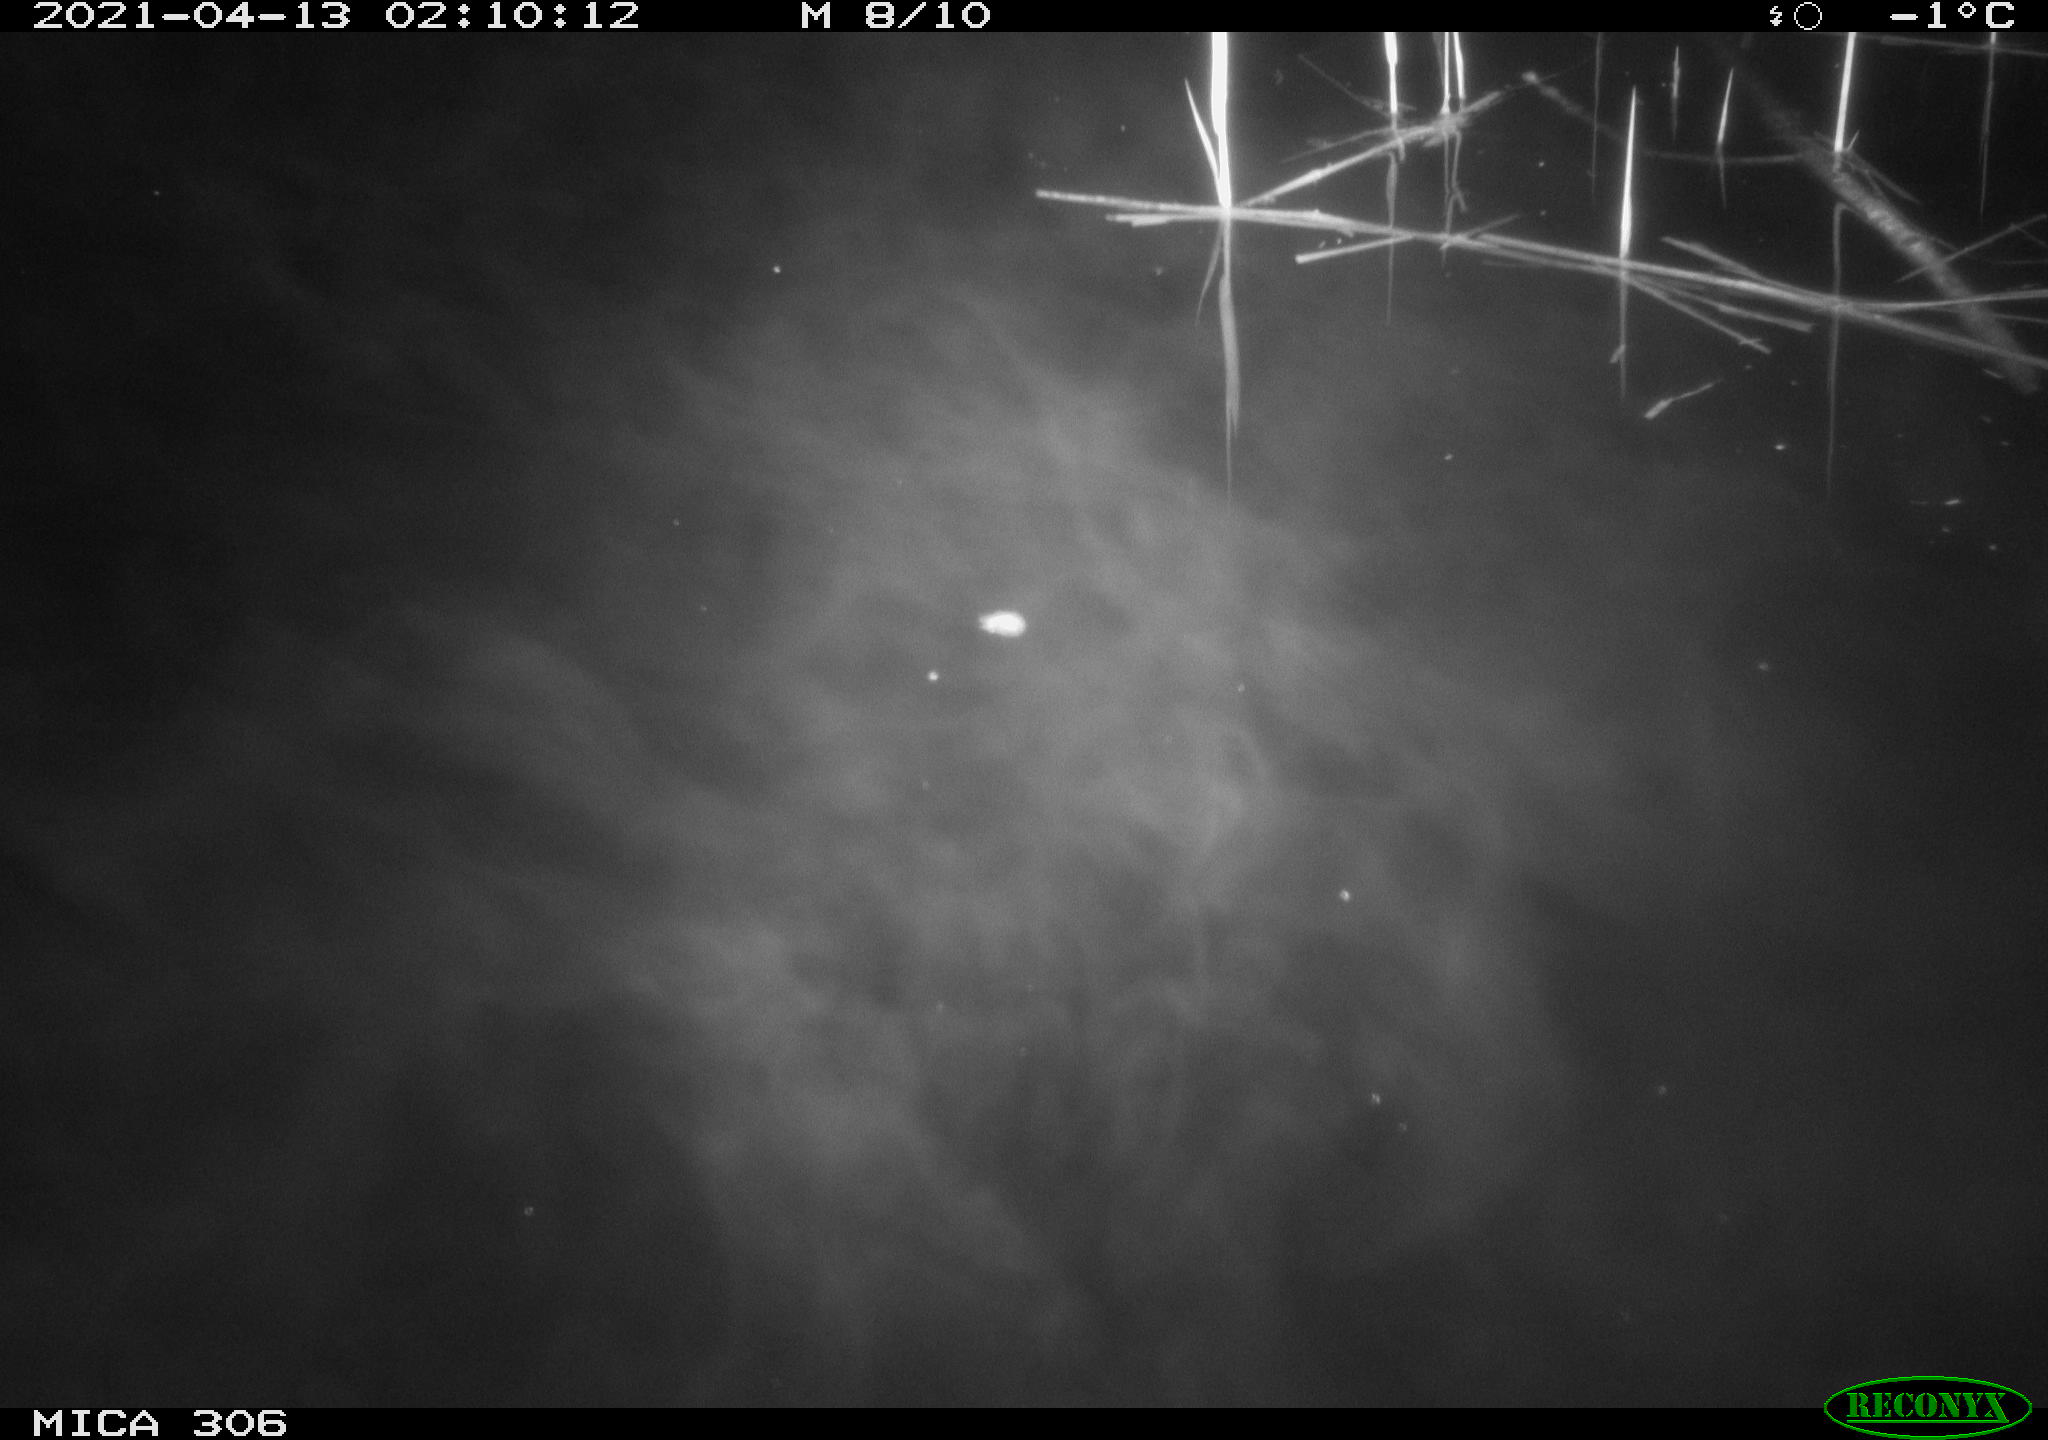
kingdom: Animalia
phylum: Chordata
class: Mammalia
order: Rodentia
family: Cricetidae
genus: Ondatra
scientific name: Ondatra zibethicus
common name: Muskrat
